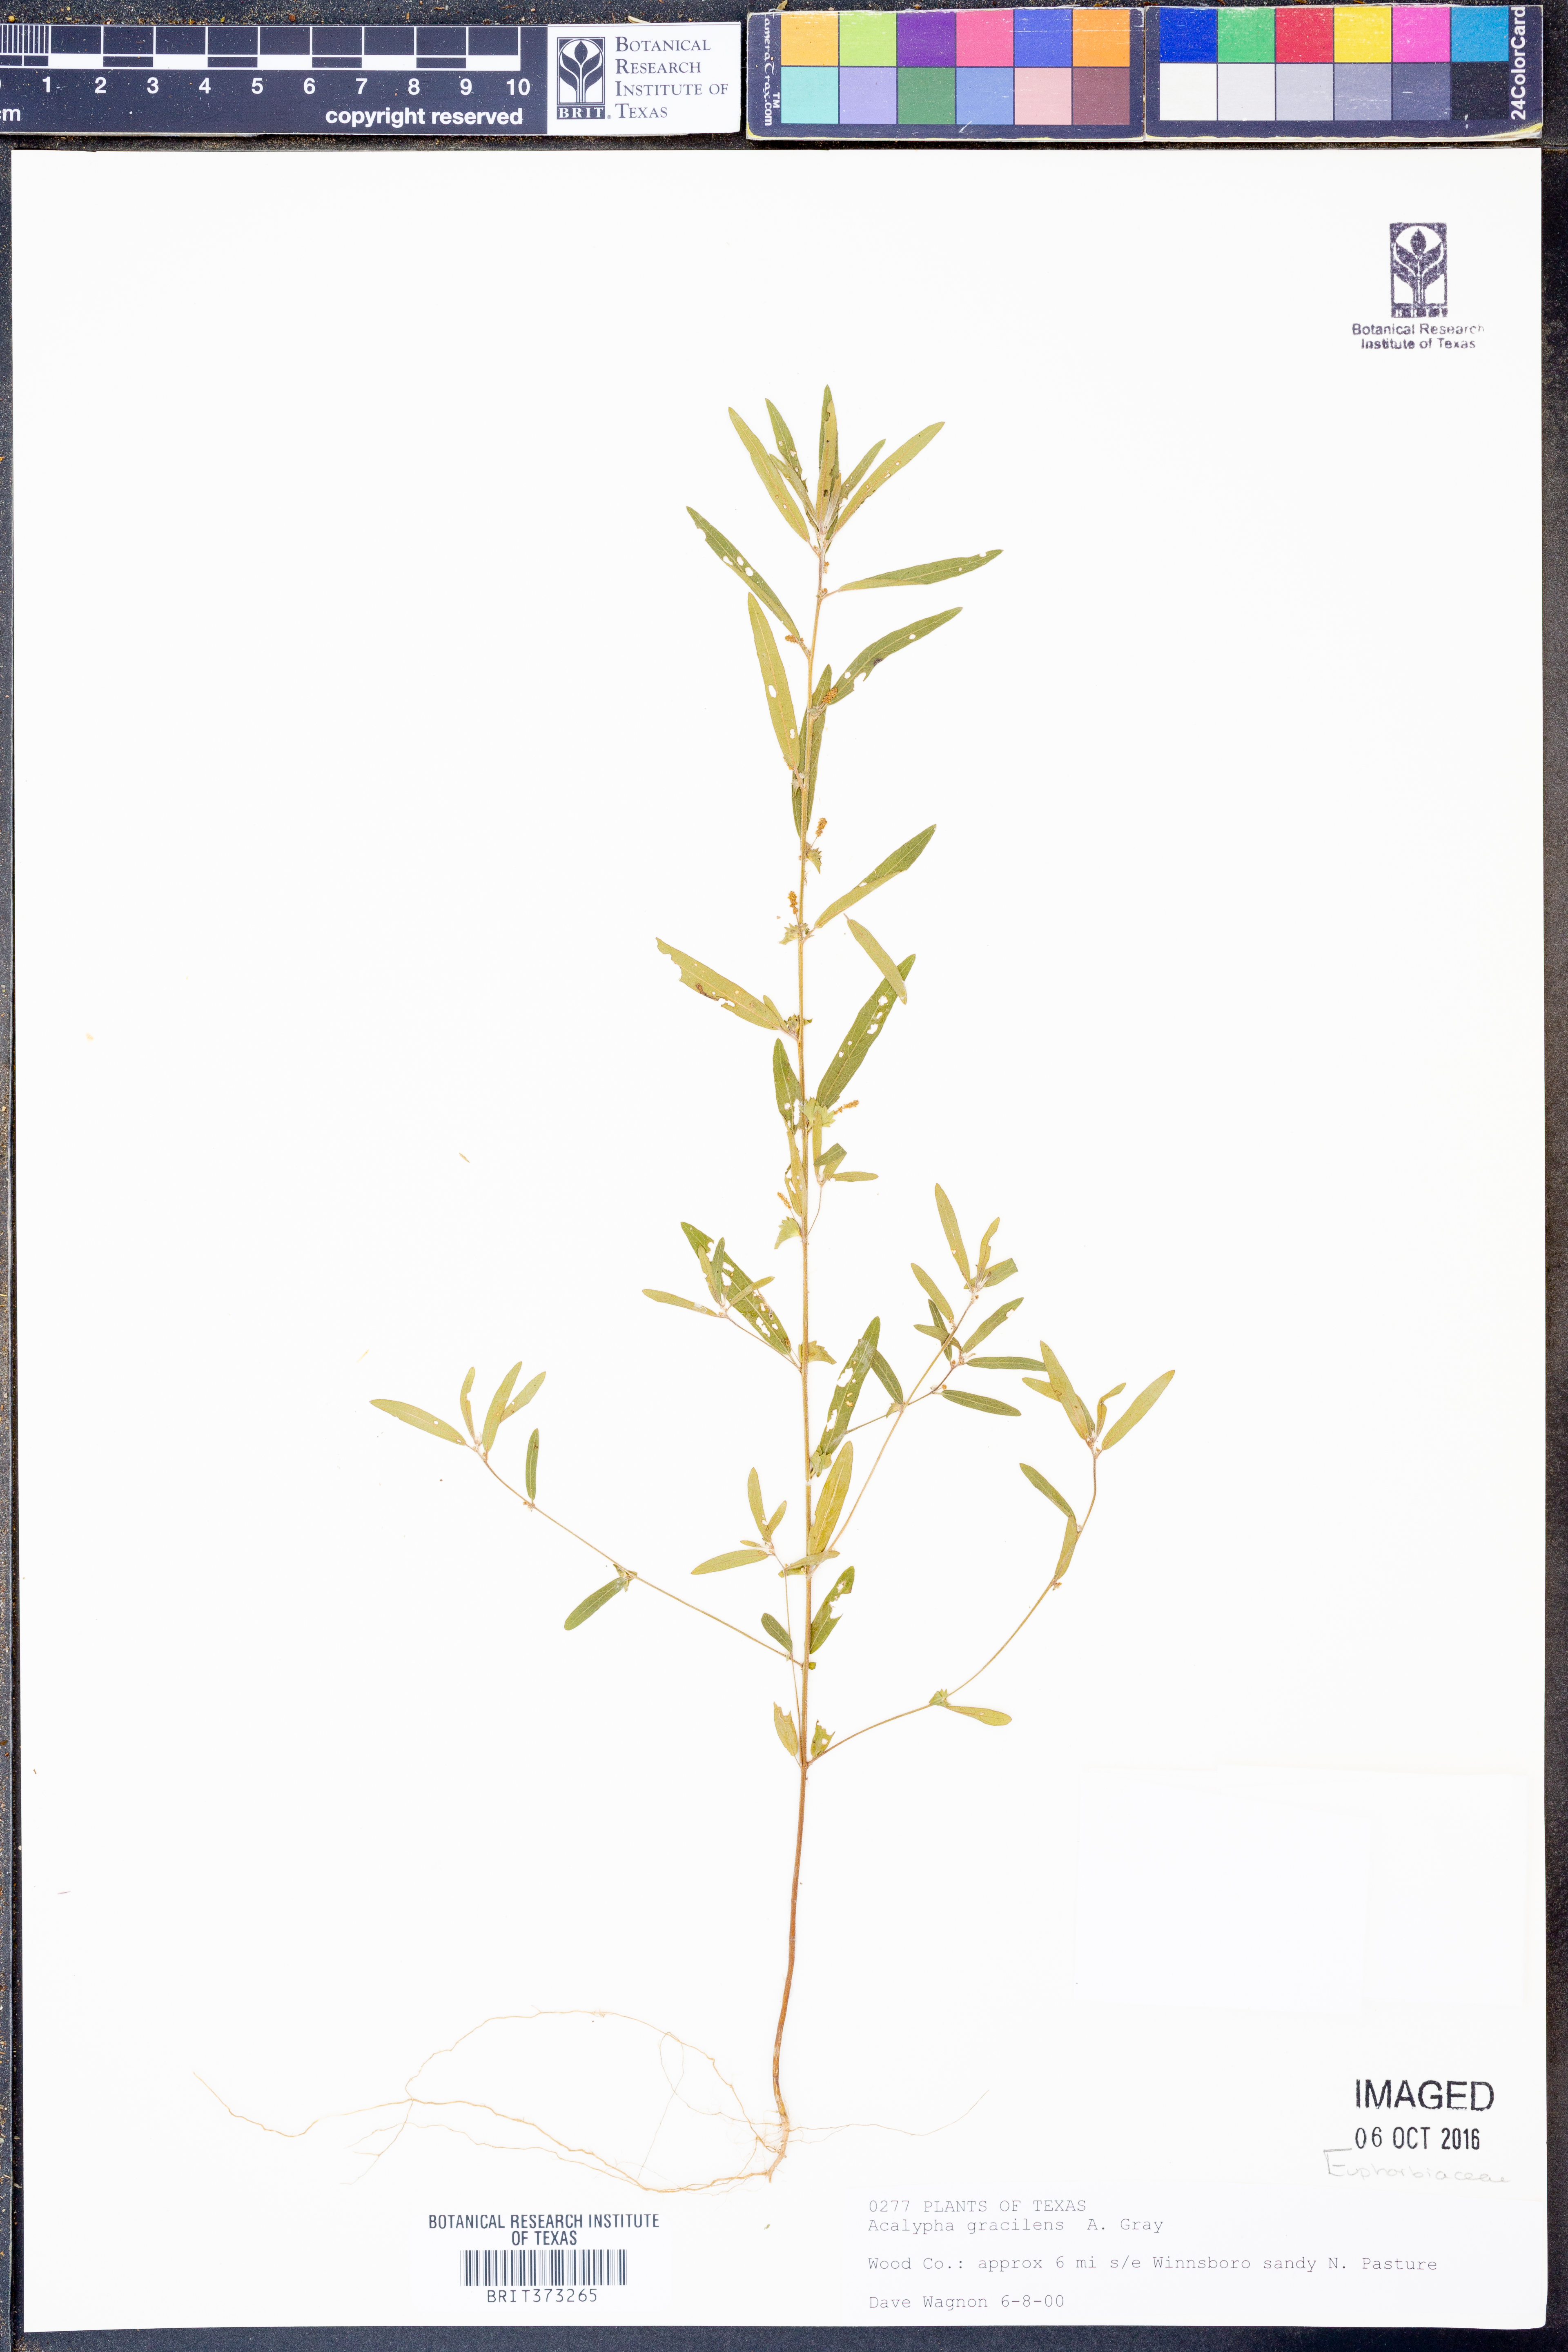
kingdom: Plantae
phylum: Tracheophyta
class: Magnoliopsida
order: Malpighiales
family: Euphorbiaceae
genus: Acalypha
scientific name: Acalypha gracilens
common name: Slender three-seeded mercury
